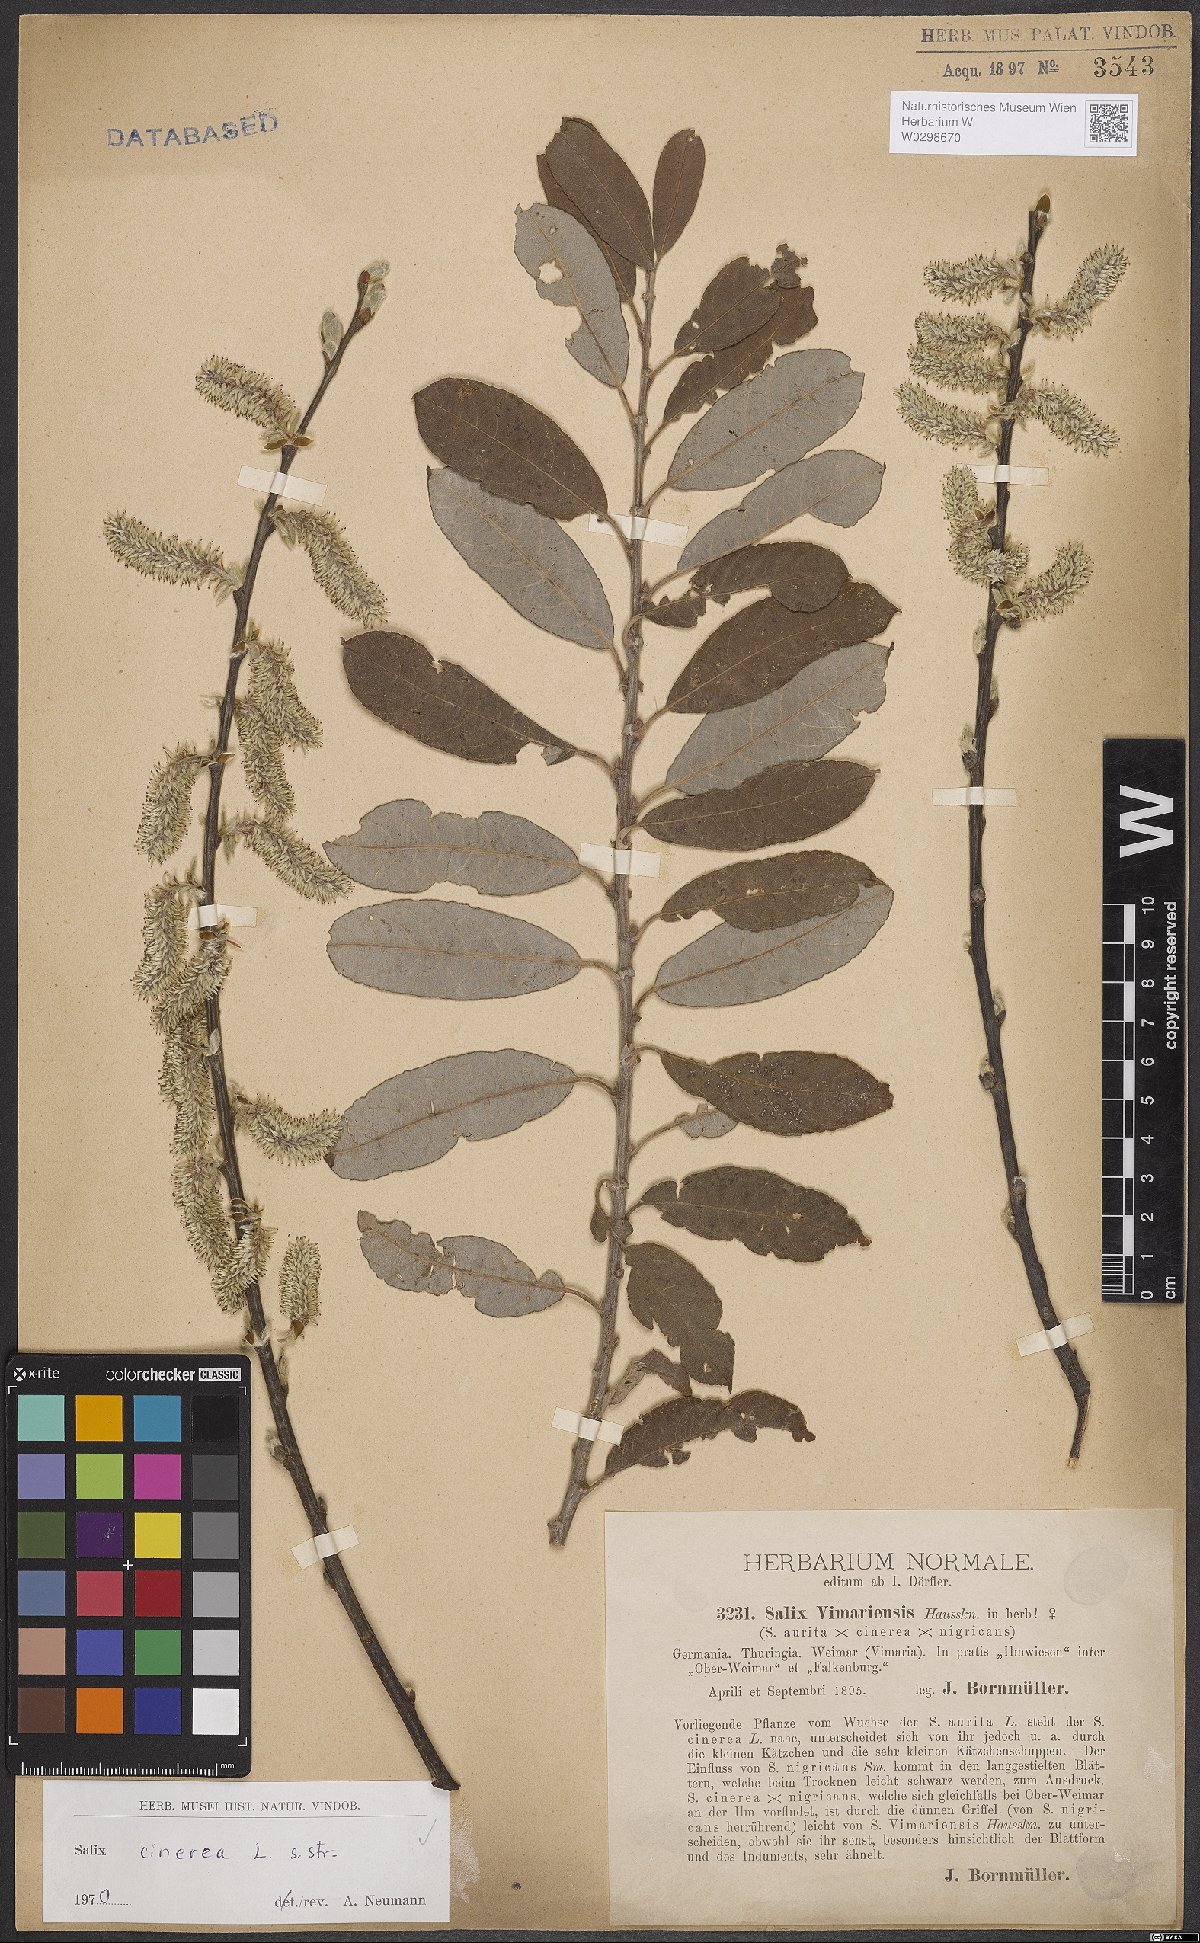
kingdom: Plantae
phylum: Tracheophyta
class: Magnoliopsida
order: Malpighiales
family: Salicaceae
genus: Salix
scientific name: Salix cinerea
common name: Common sallow
